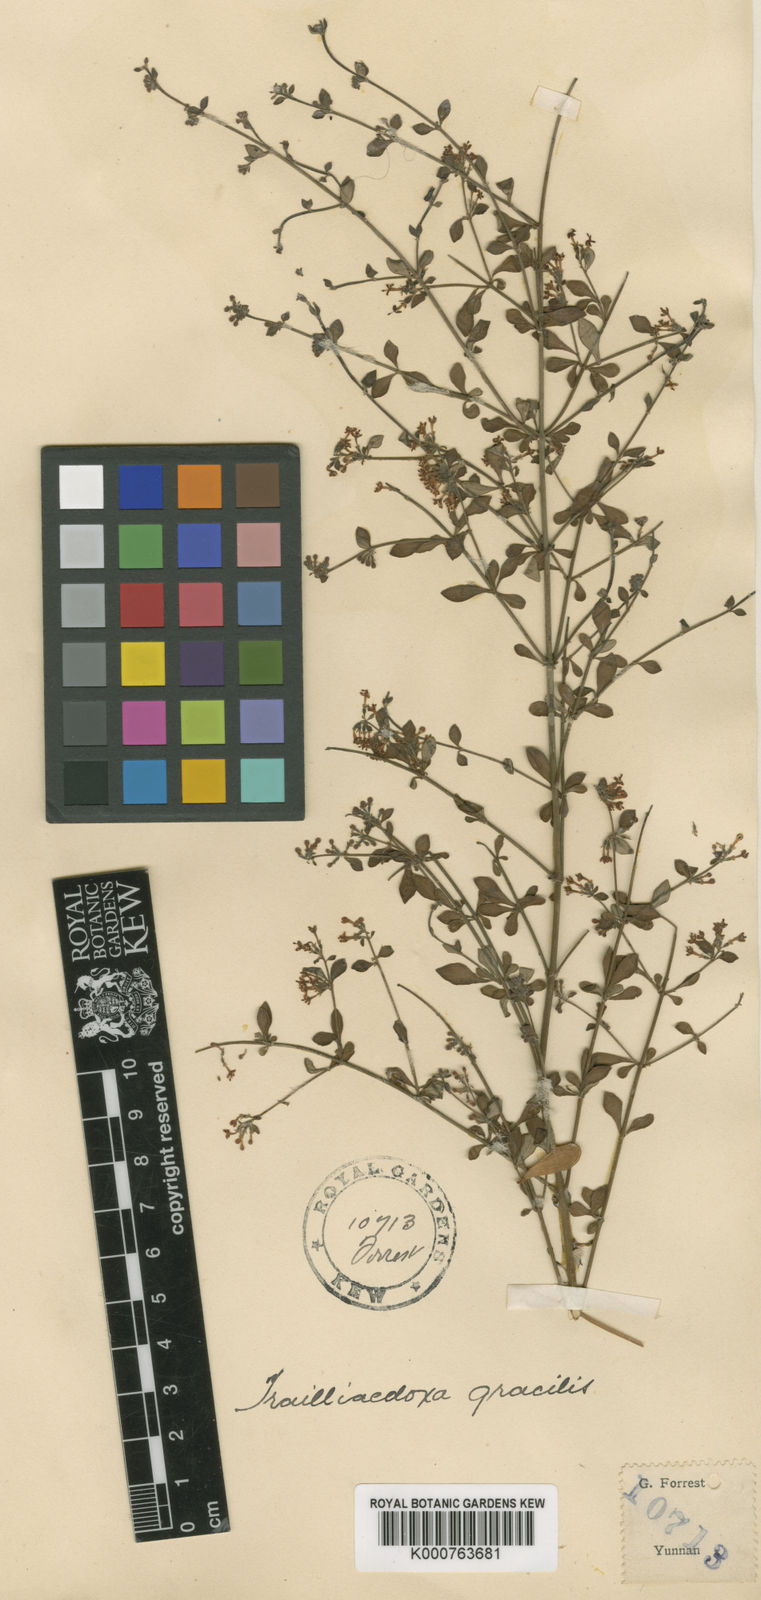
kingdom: Plantae
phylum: Tracheophyta
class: Magnoliopsida
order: Gentianales
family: Rubiaceae
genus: Trailliaedoxa
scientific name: Trailliaedoxa gracilis
